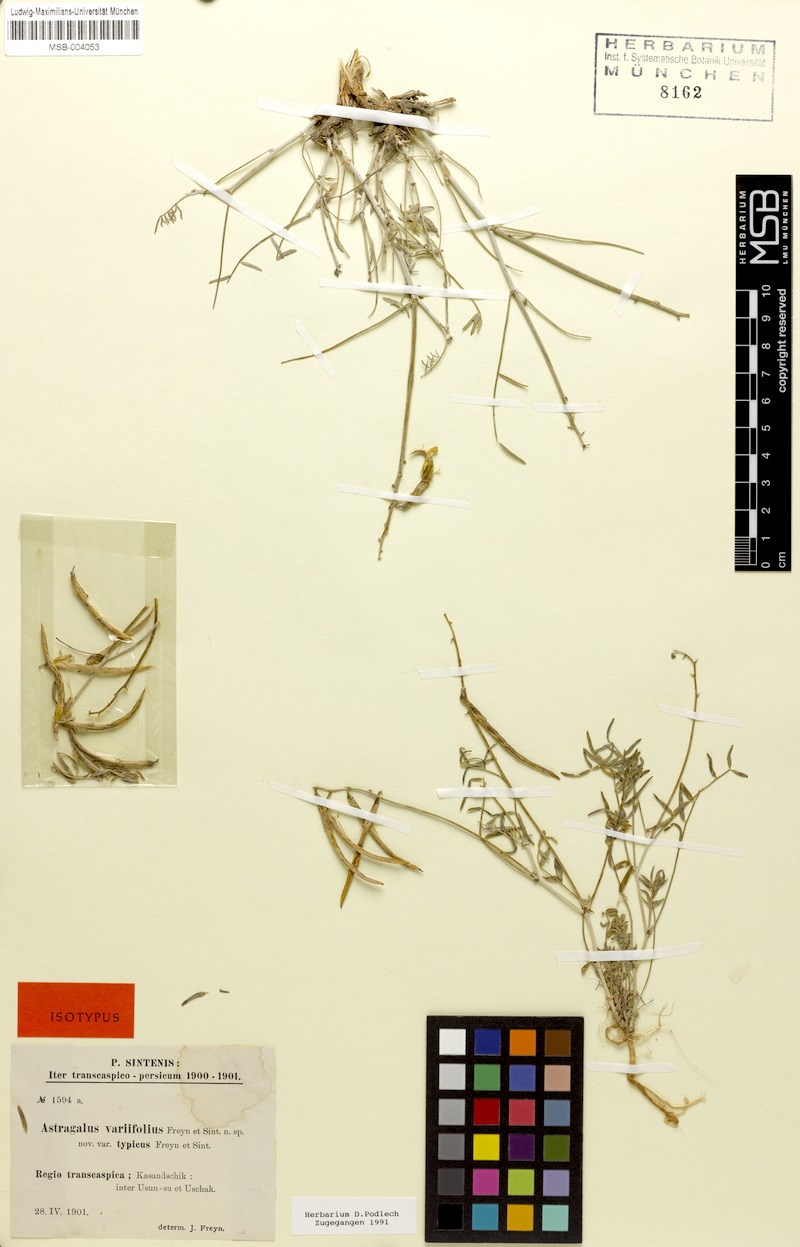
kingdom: Plantae
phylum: Tracheophyta
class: Magnoliopsida
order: Fabales
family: Fabaceae
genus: Astragalus
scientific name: Astragalus juratzkanus
